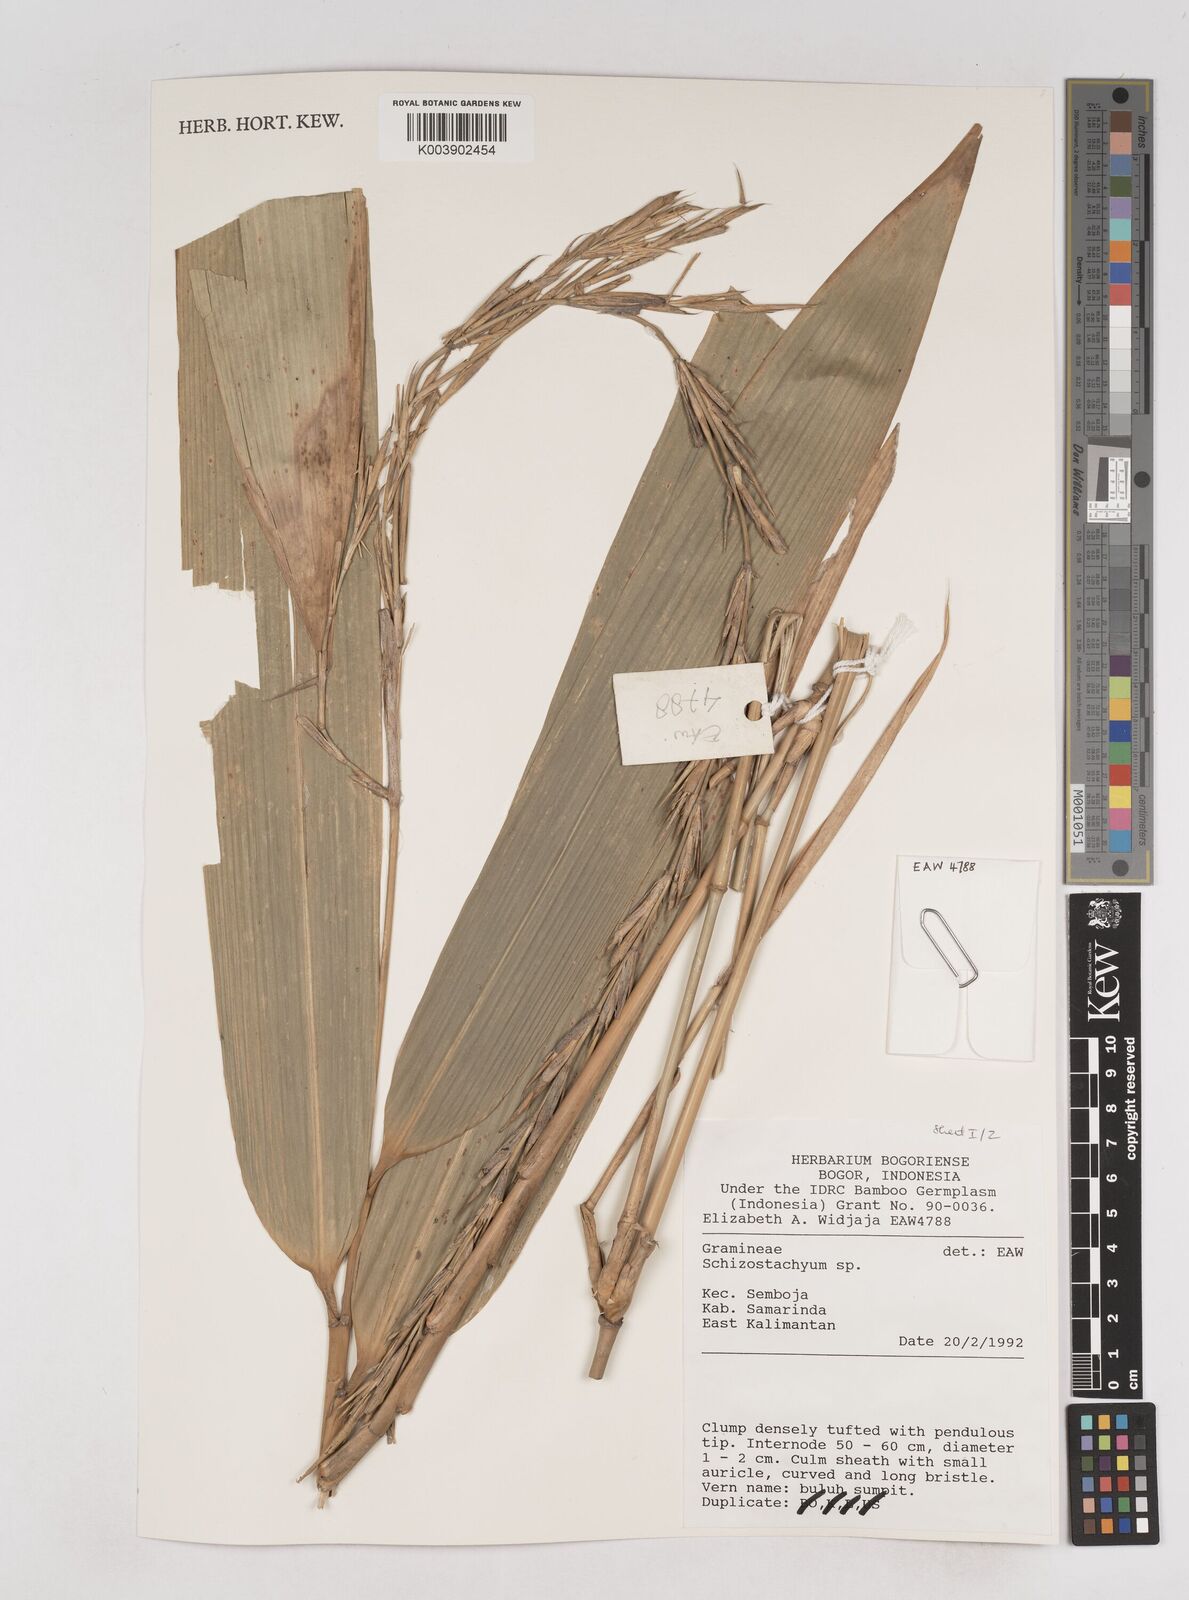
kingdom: Plantae
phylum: Tracheophyta
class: Liliopsida
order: Poales
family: Poaceae
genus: Schizostachyum
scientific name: Schizostachyum
